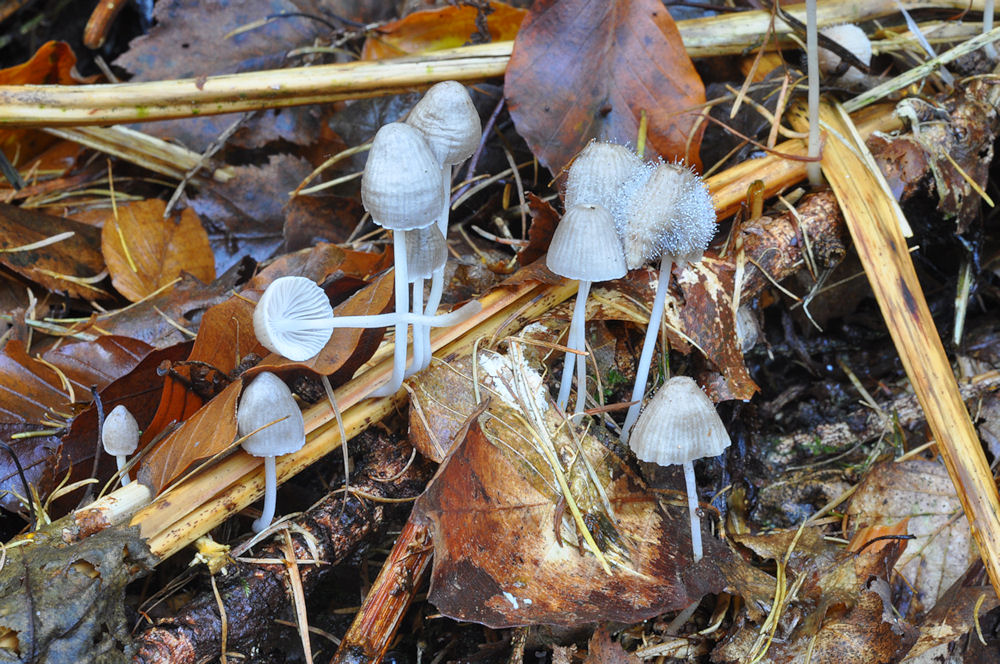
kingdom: Fungi
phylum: Basidiomycota
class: Agaricomycetes
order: Agaricales
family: Mycenaceae
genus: Mycena
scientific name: Mycena epipterygia
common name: gulstokket huesvamp
